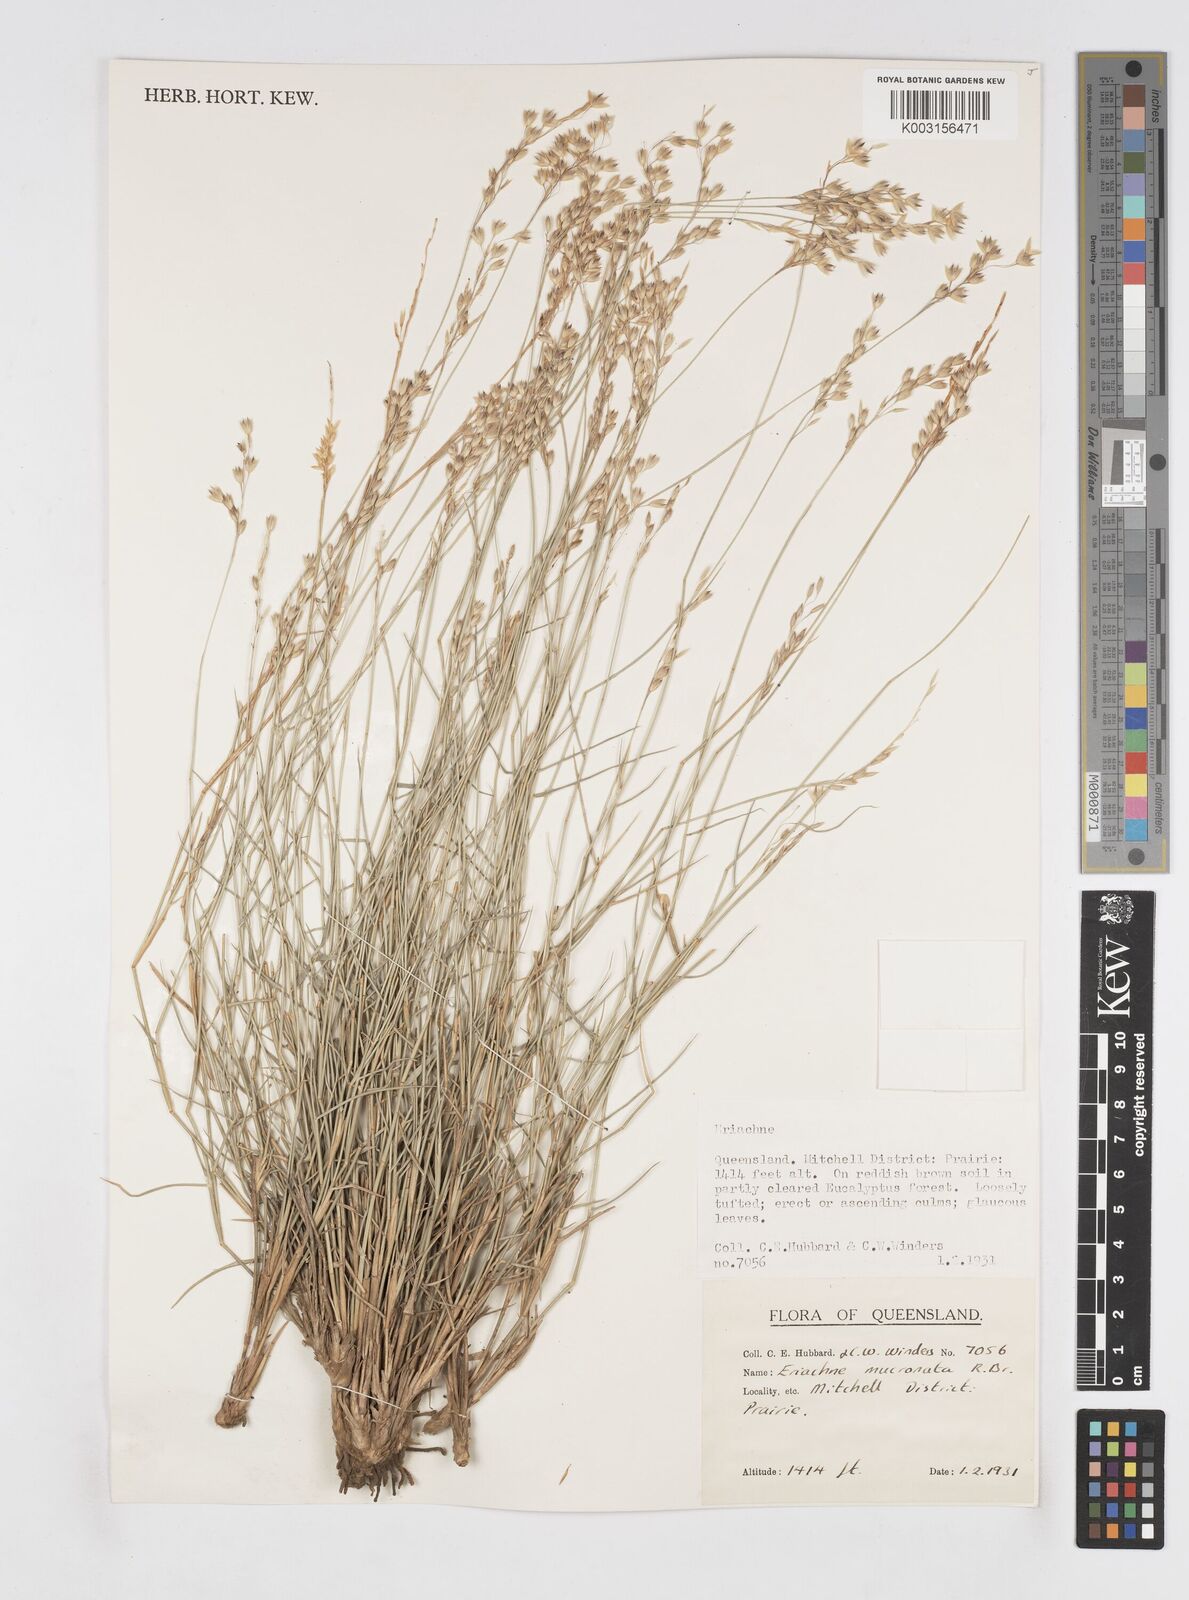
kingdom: Plantae
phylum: Tracheophyta
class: Liliopsida
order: Poales
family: Poaceae
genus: Eriachne
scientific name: Eriachne mucronata
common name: Mountain wanderrie grass
